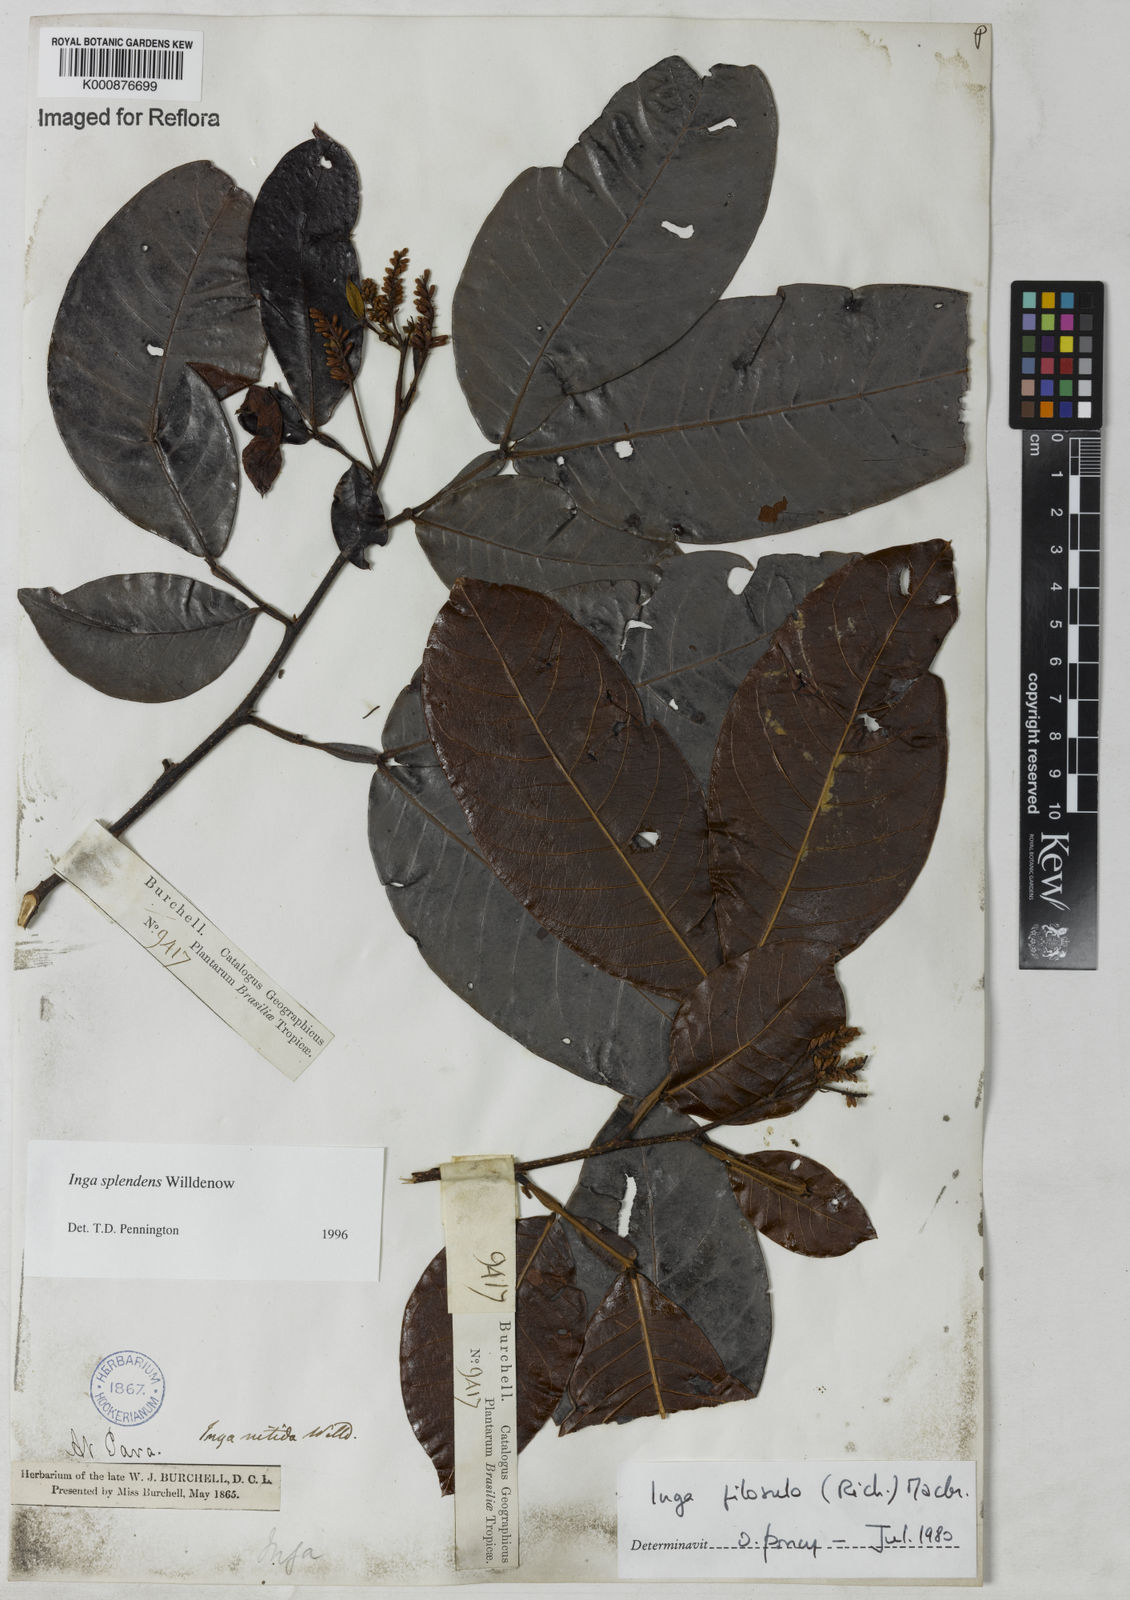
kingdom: Plantae
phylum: Tracheophyta
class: Magnoliopsida
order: Fabales
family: Fabaceae
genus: Inga
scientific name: Inga splendens
